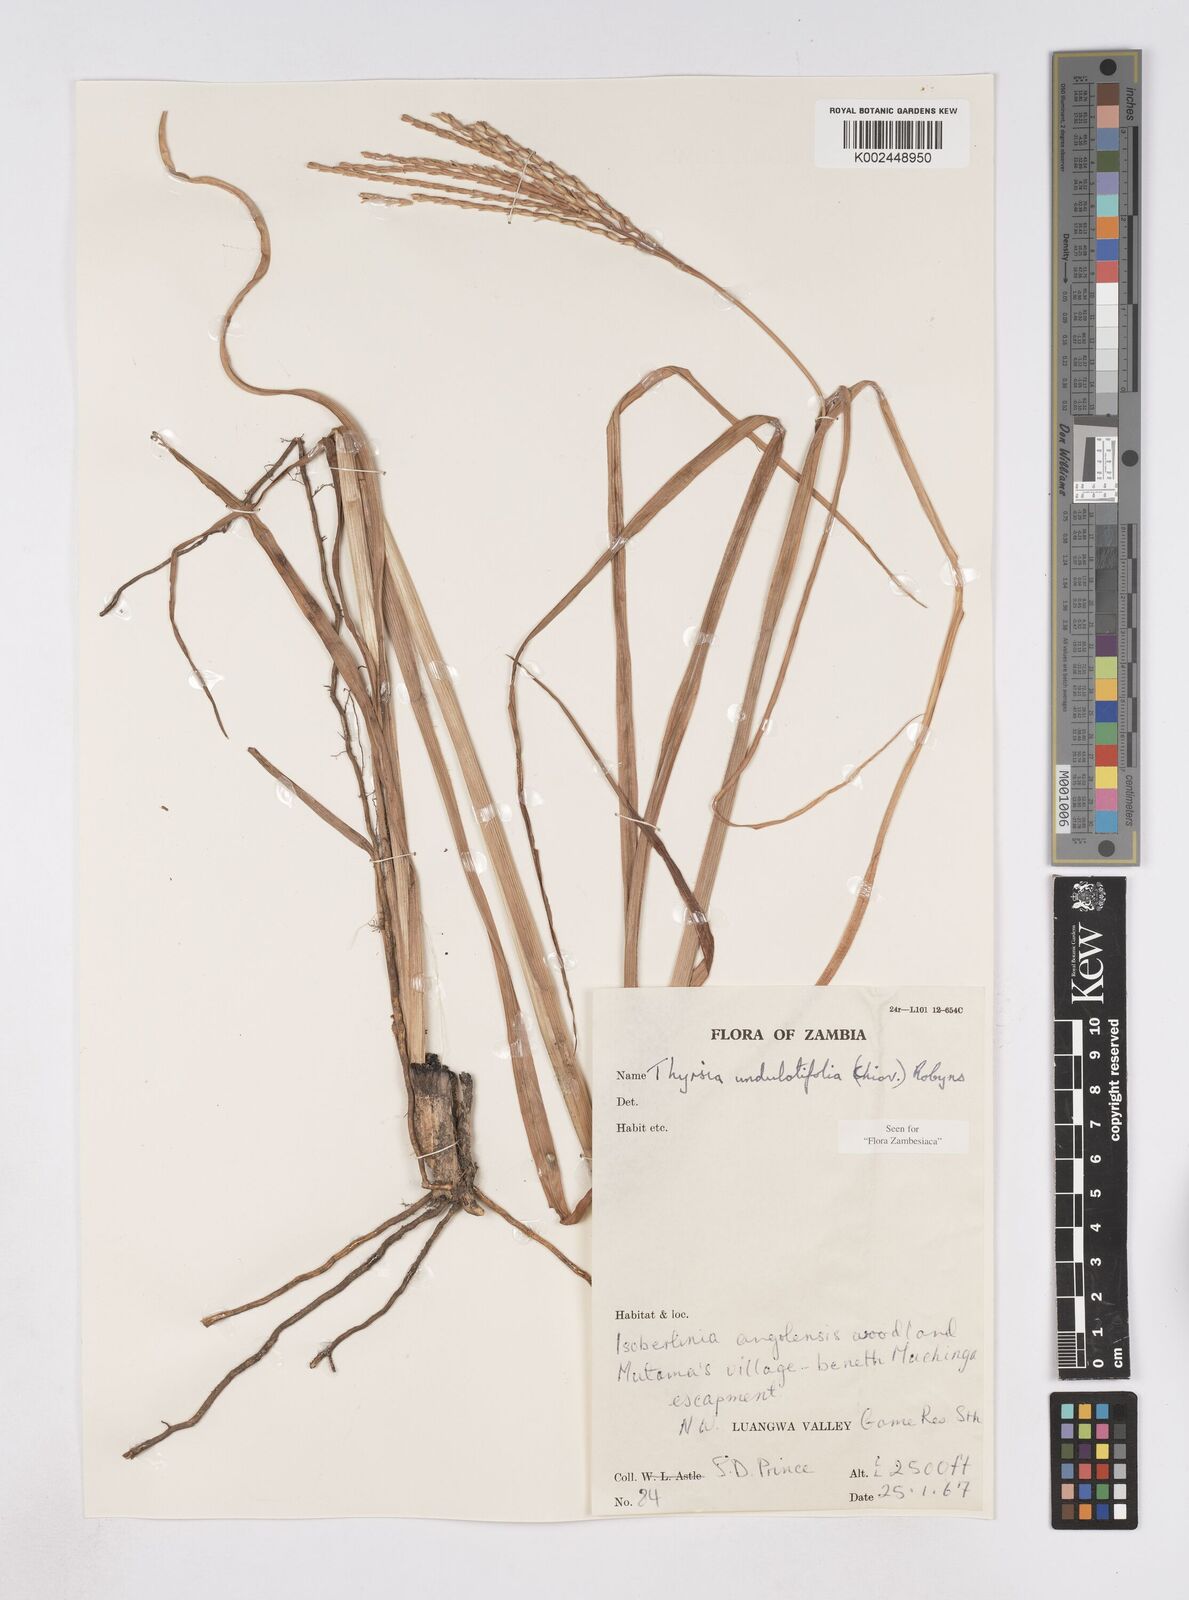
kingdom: Plantae
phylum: Tracheophyta
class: Liliopsida
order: Poales
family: Poaceae
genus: Thyrsia
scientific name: Thyrsia huillensis
